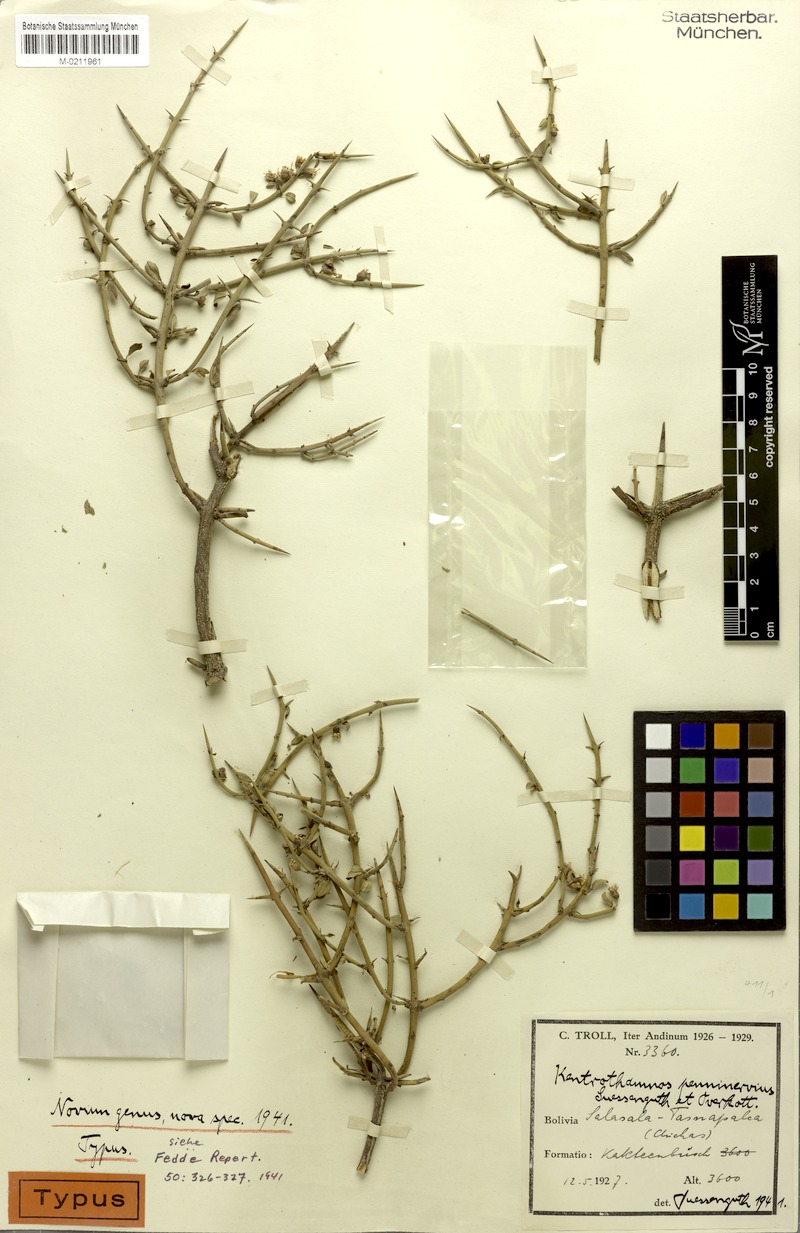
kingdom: Plantae
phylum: Tracheophyta
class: Magnoliopsida
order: Rosales
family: Rhamnaceae
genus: Kentrothamnus
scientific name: Kentrothamnus weddellianus
